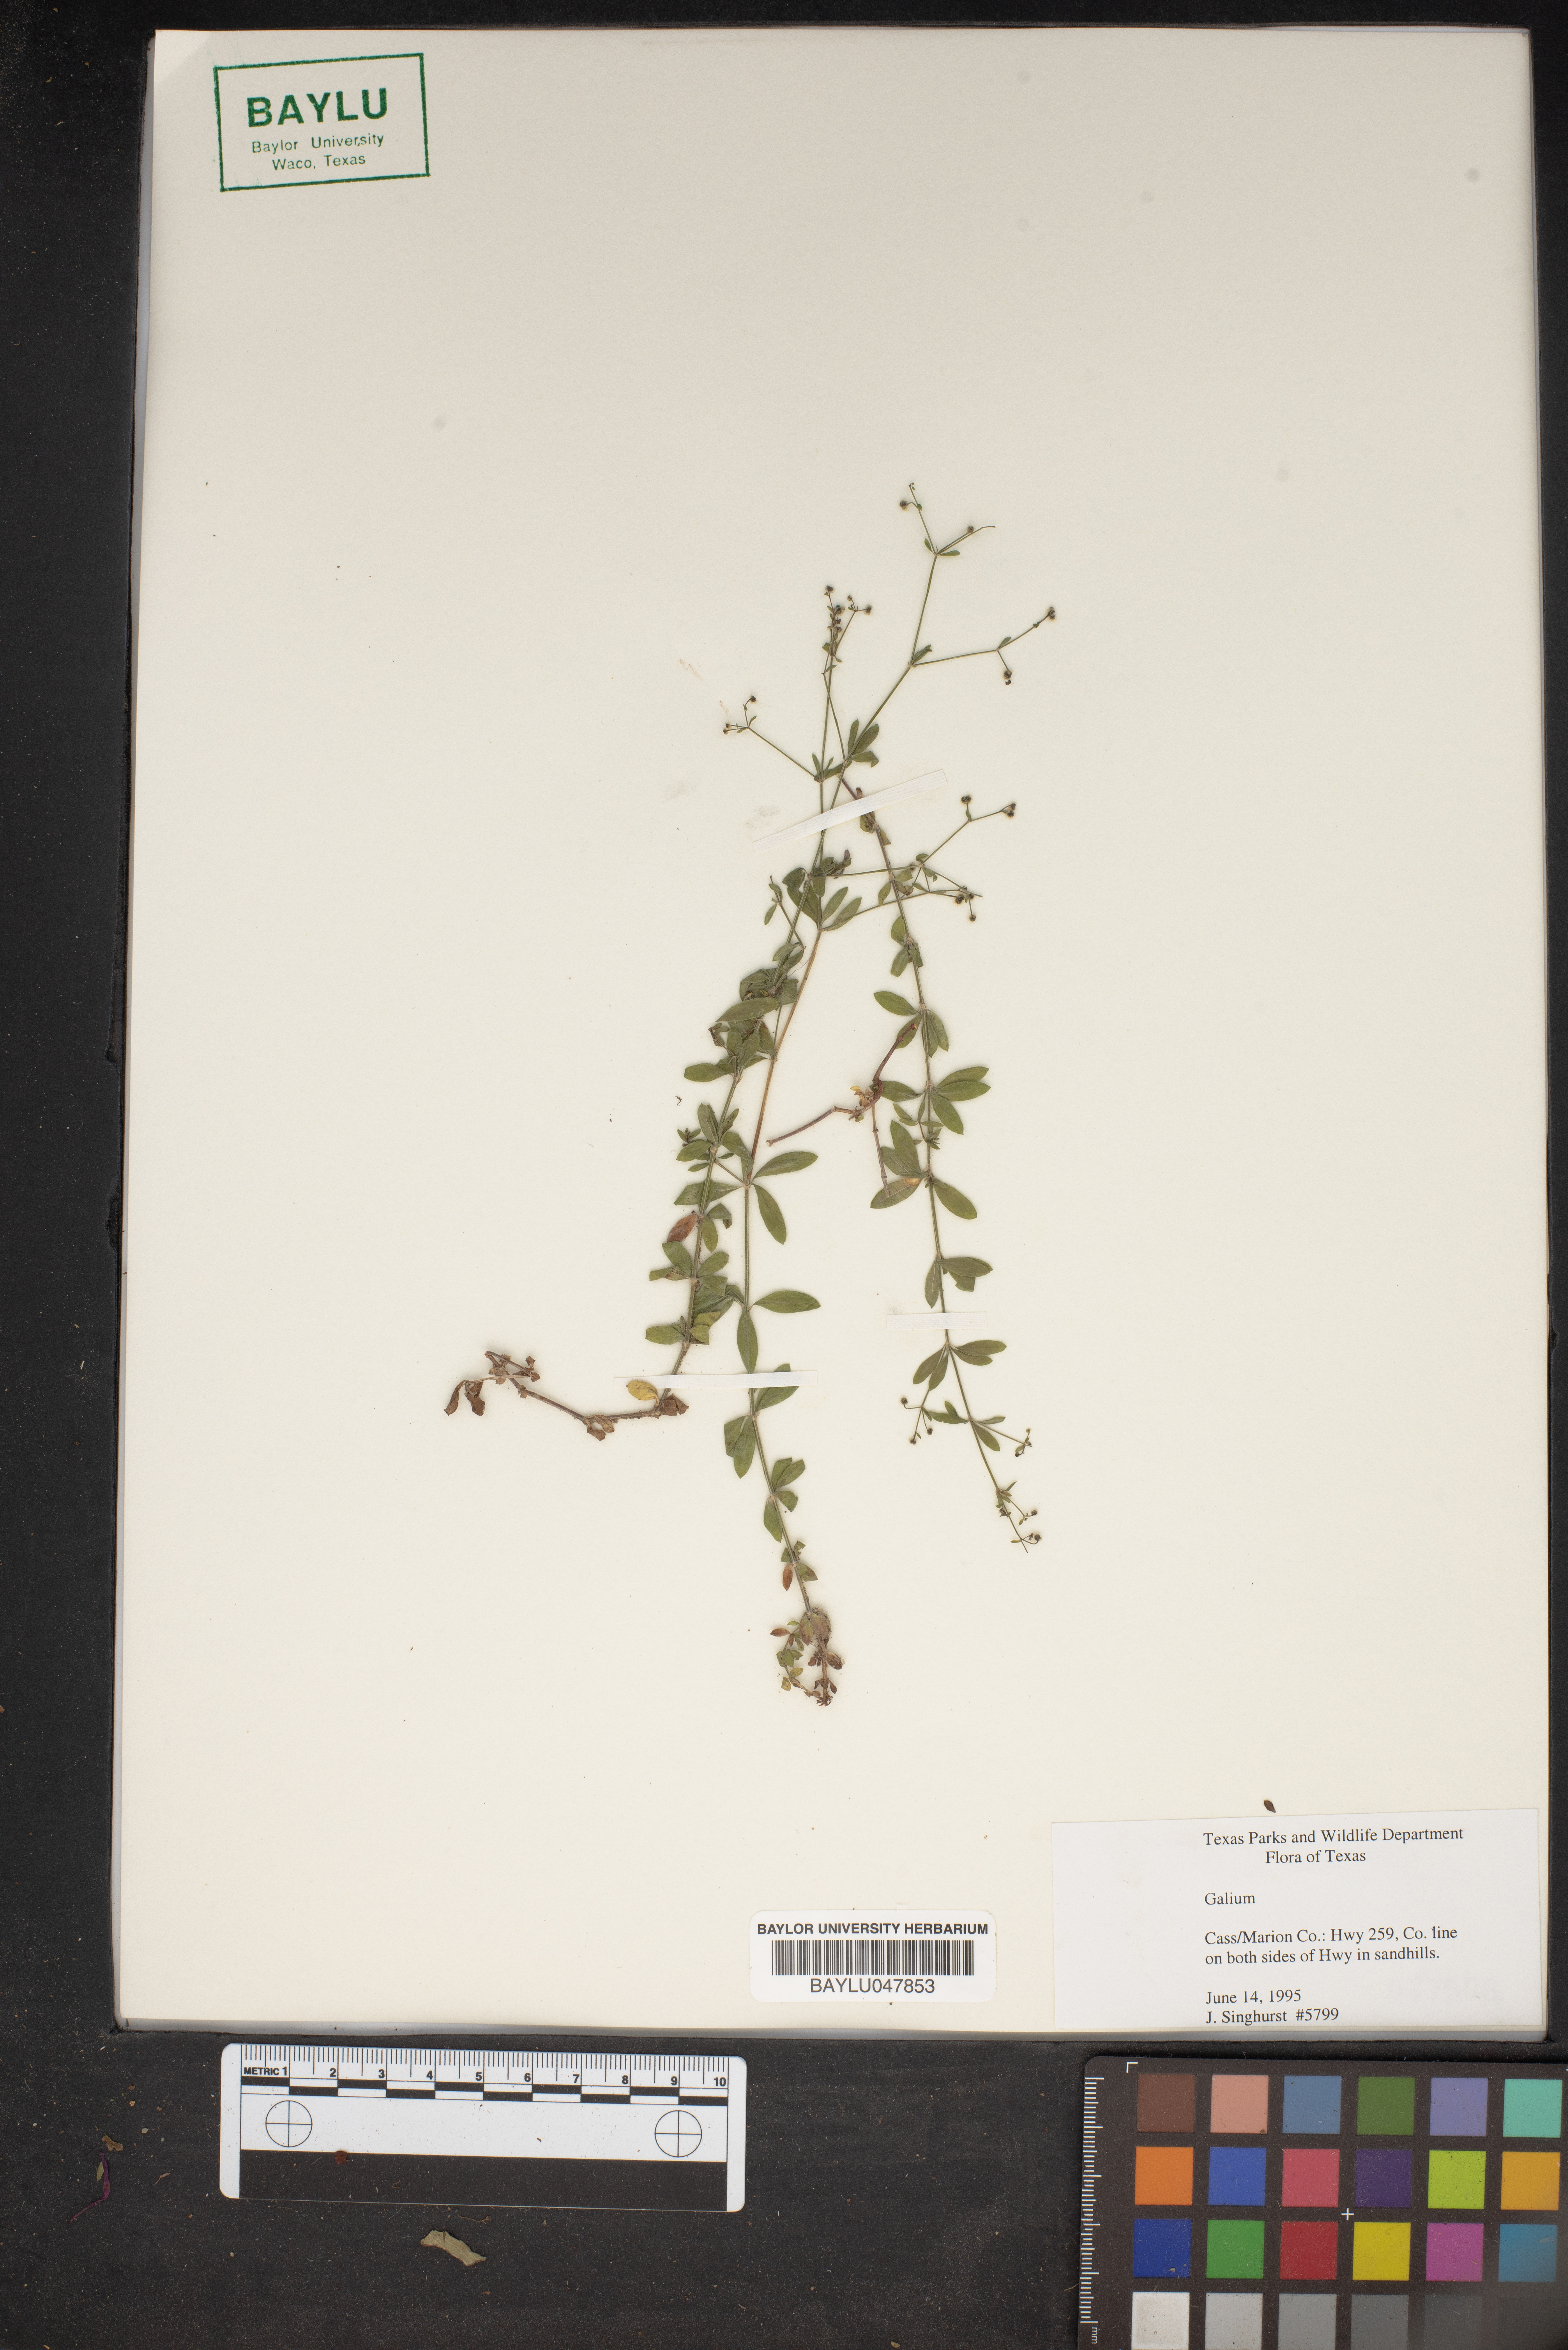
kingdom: Plantae
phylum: Tracheophyta
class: Magnoliopsida
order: Gentianales
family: Rubiaceae
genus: Galium
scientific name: Galium
